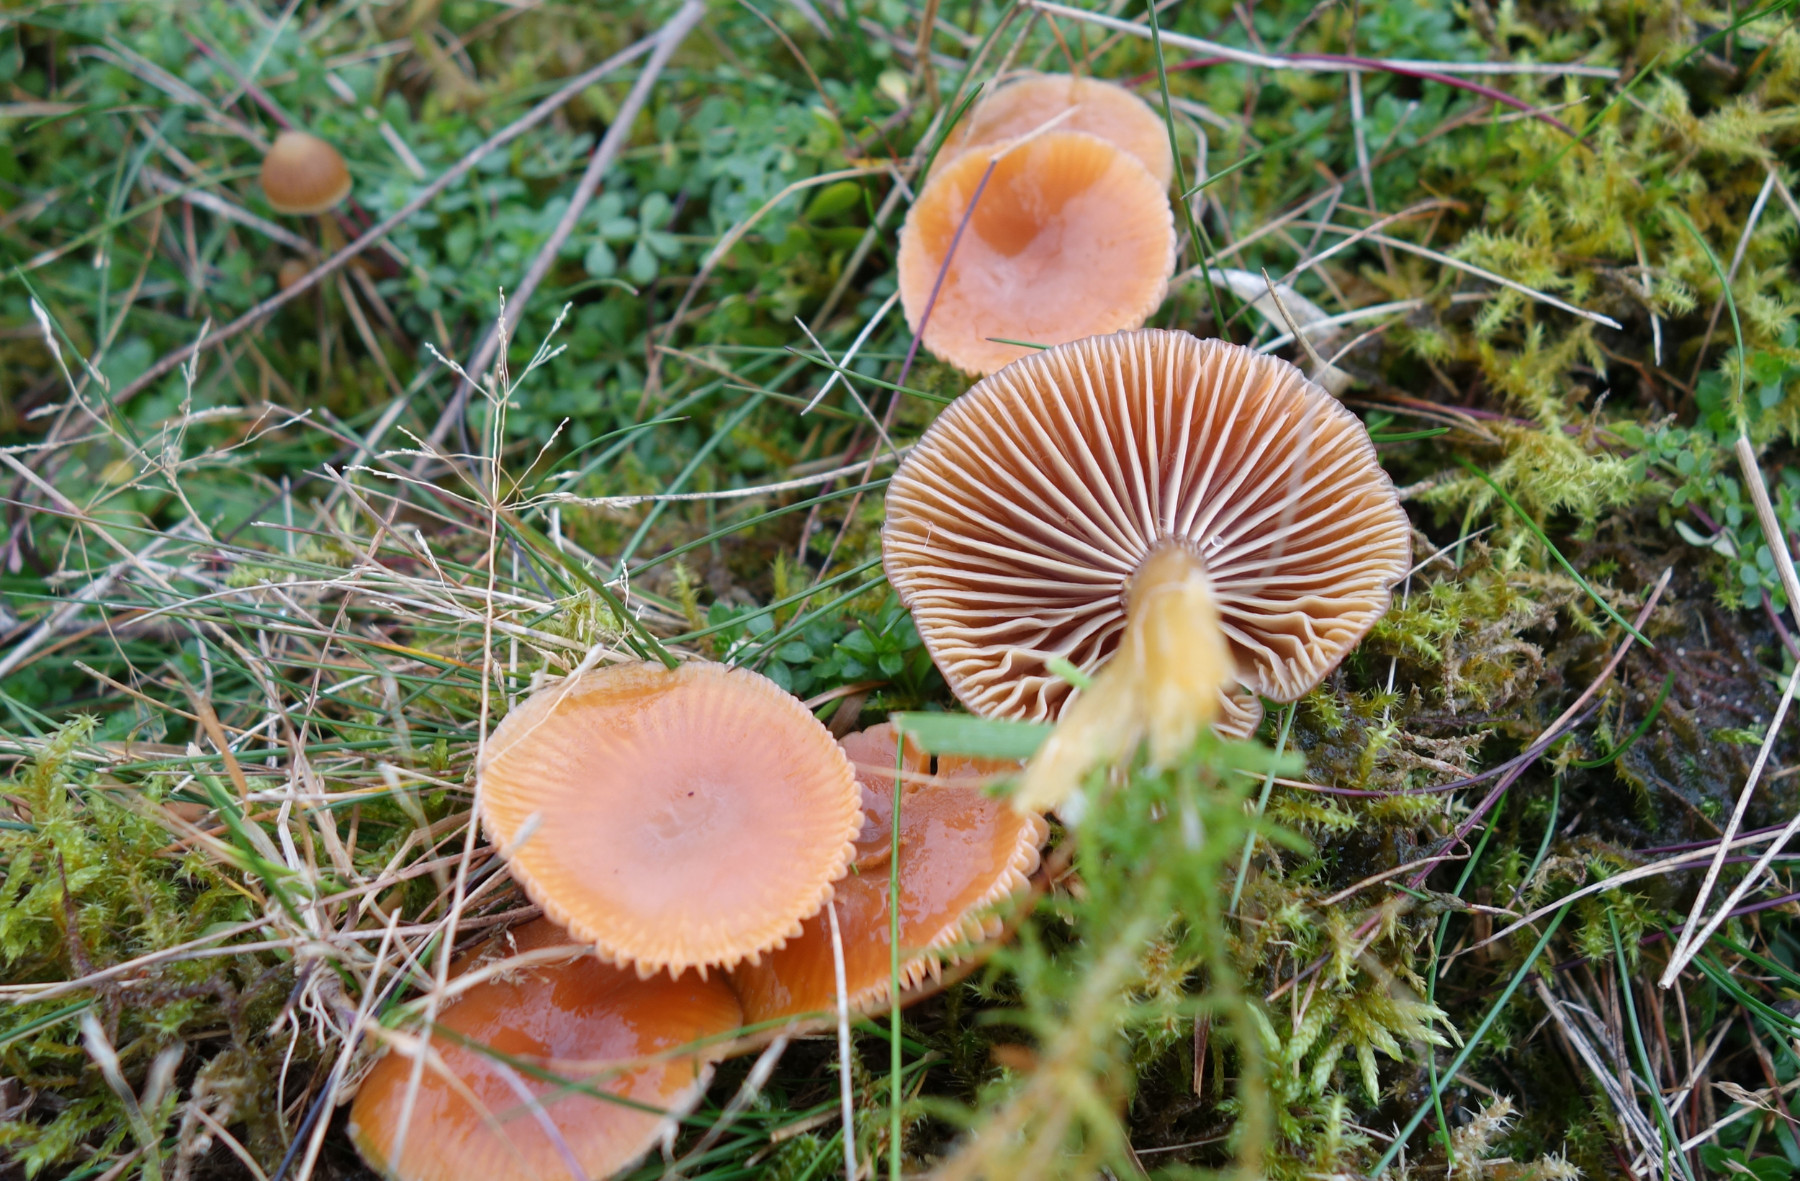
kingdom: Fungi
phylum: Basidiomycota
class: Agaricomycetes
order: Agaricales
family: Hygrophoraceae
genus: Gliophorus
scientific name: Gliophorus laetus
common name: brusk-vokshat
